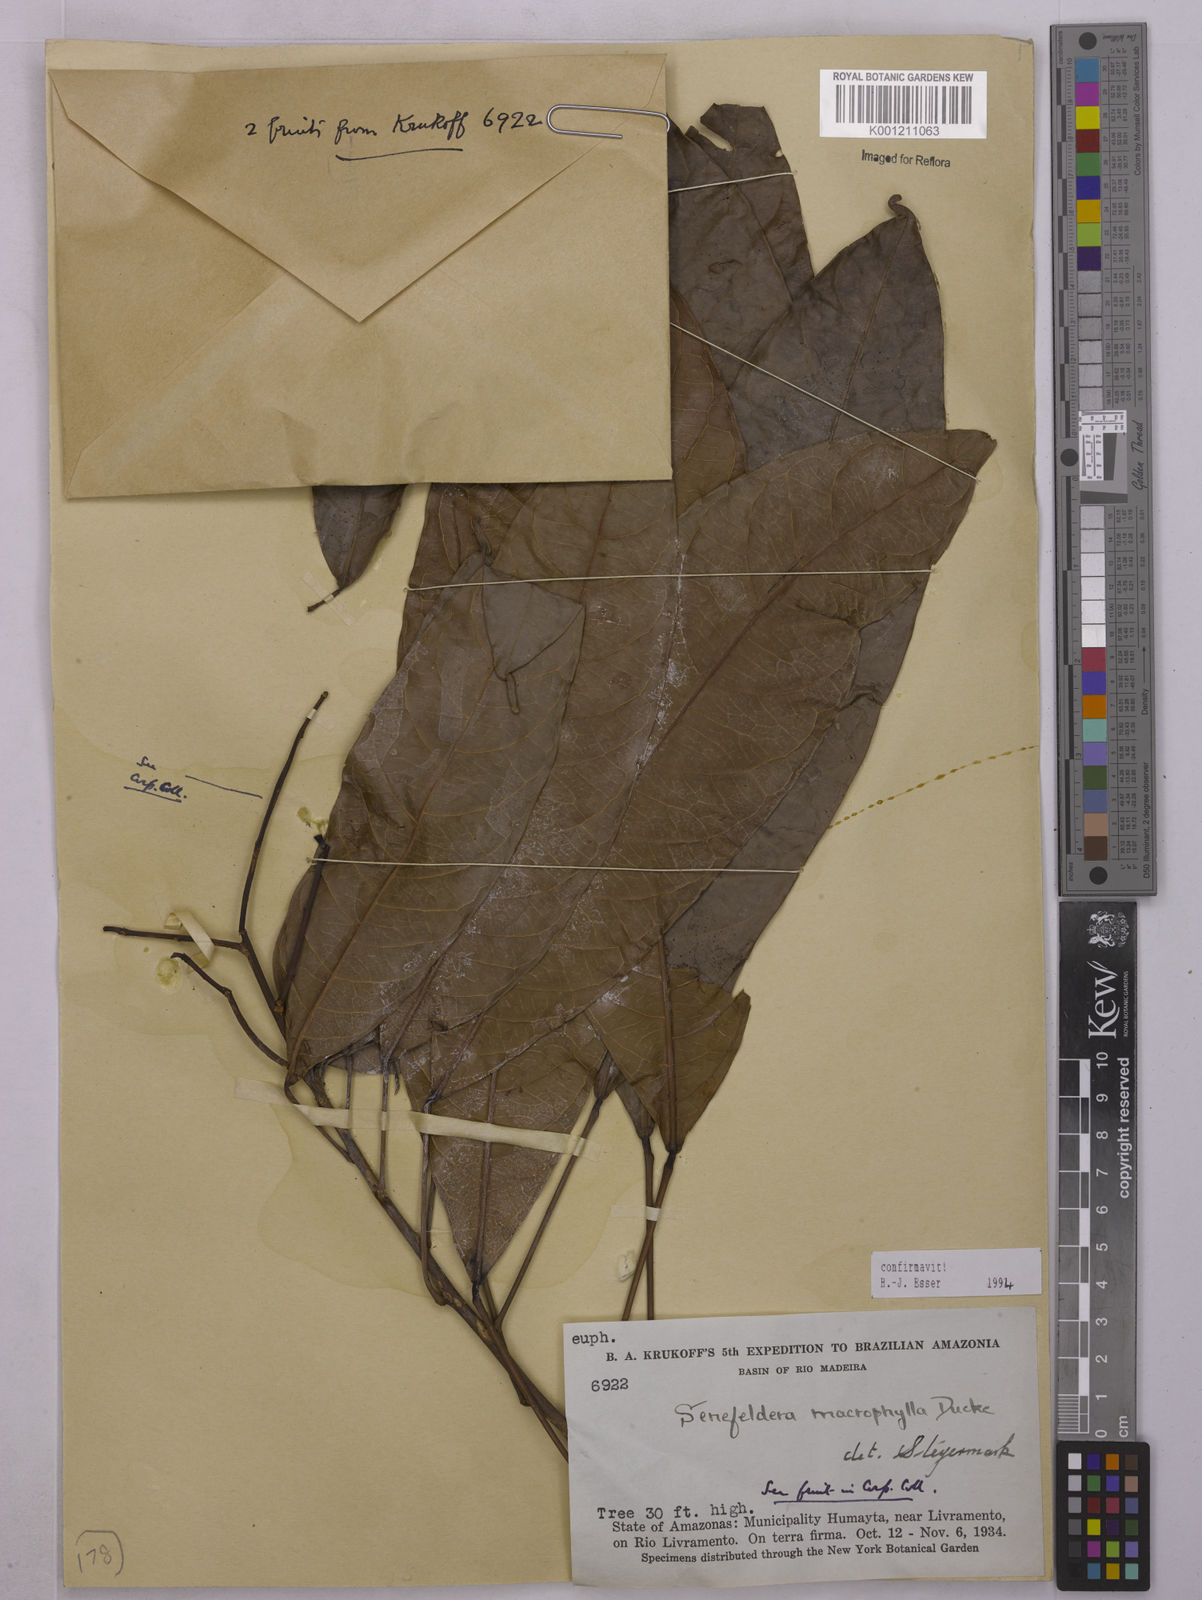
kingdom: Plantae
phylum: Tracheophyta
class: Magnoliopsida
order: Malpighiales
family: Euphorbiaceae
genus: Rhodothyrsus
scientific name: Rhodothyrsus macrophyllus
